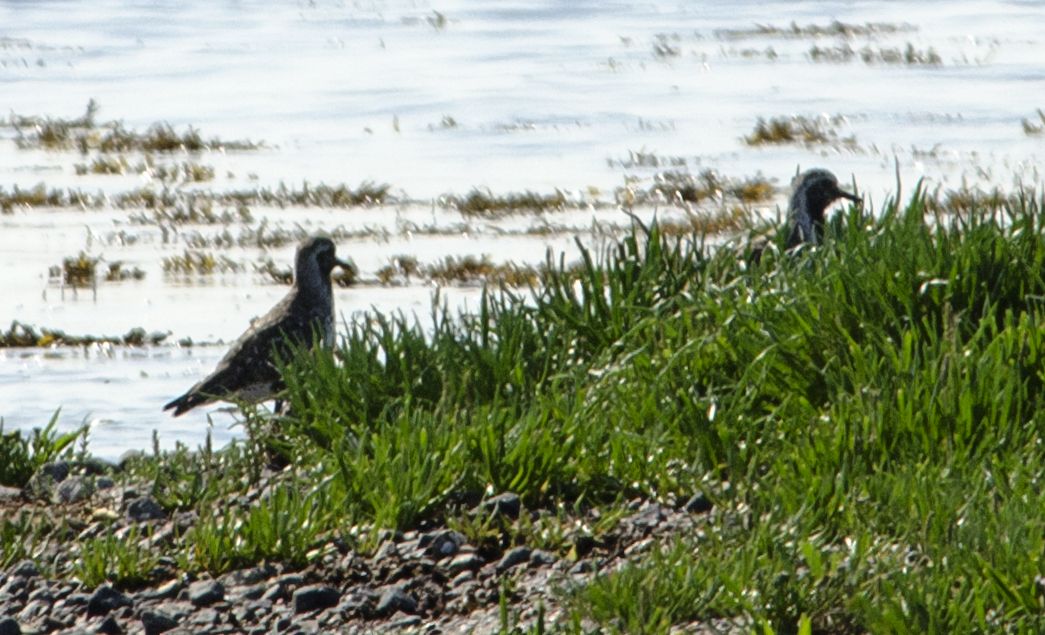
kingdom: Animalia
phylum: Chordata
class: Aves
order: Charadriiformes
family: Charadriidae
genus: Pluvialis
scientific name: Pluvialis apricaria
